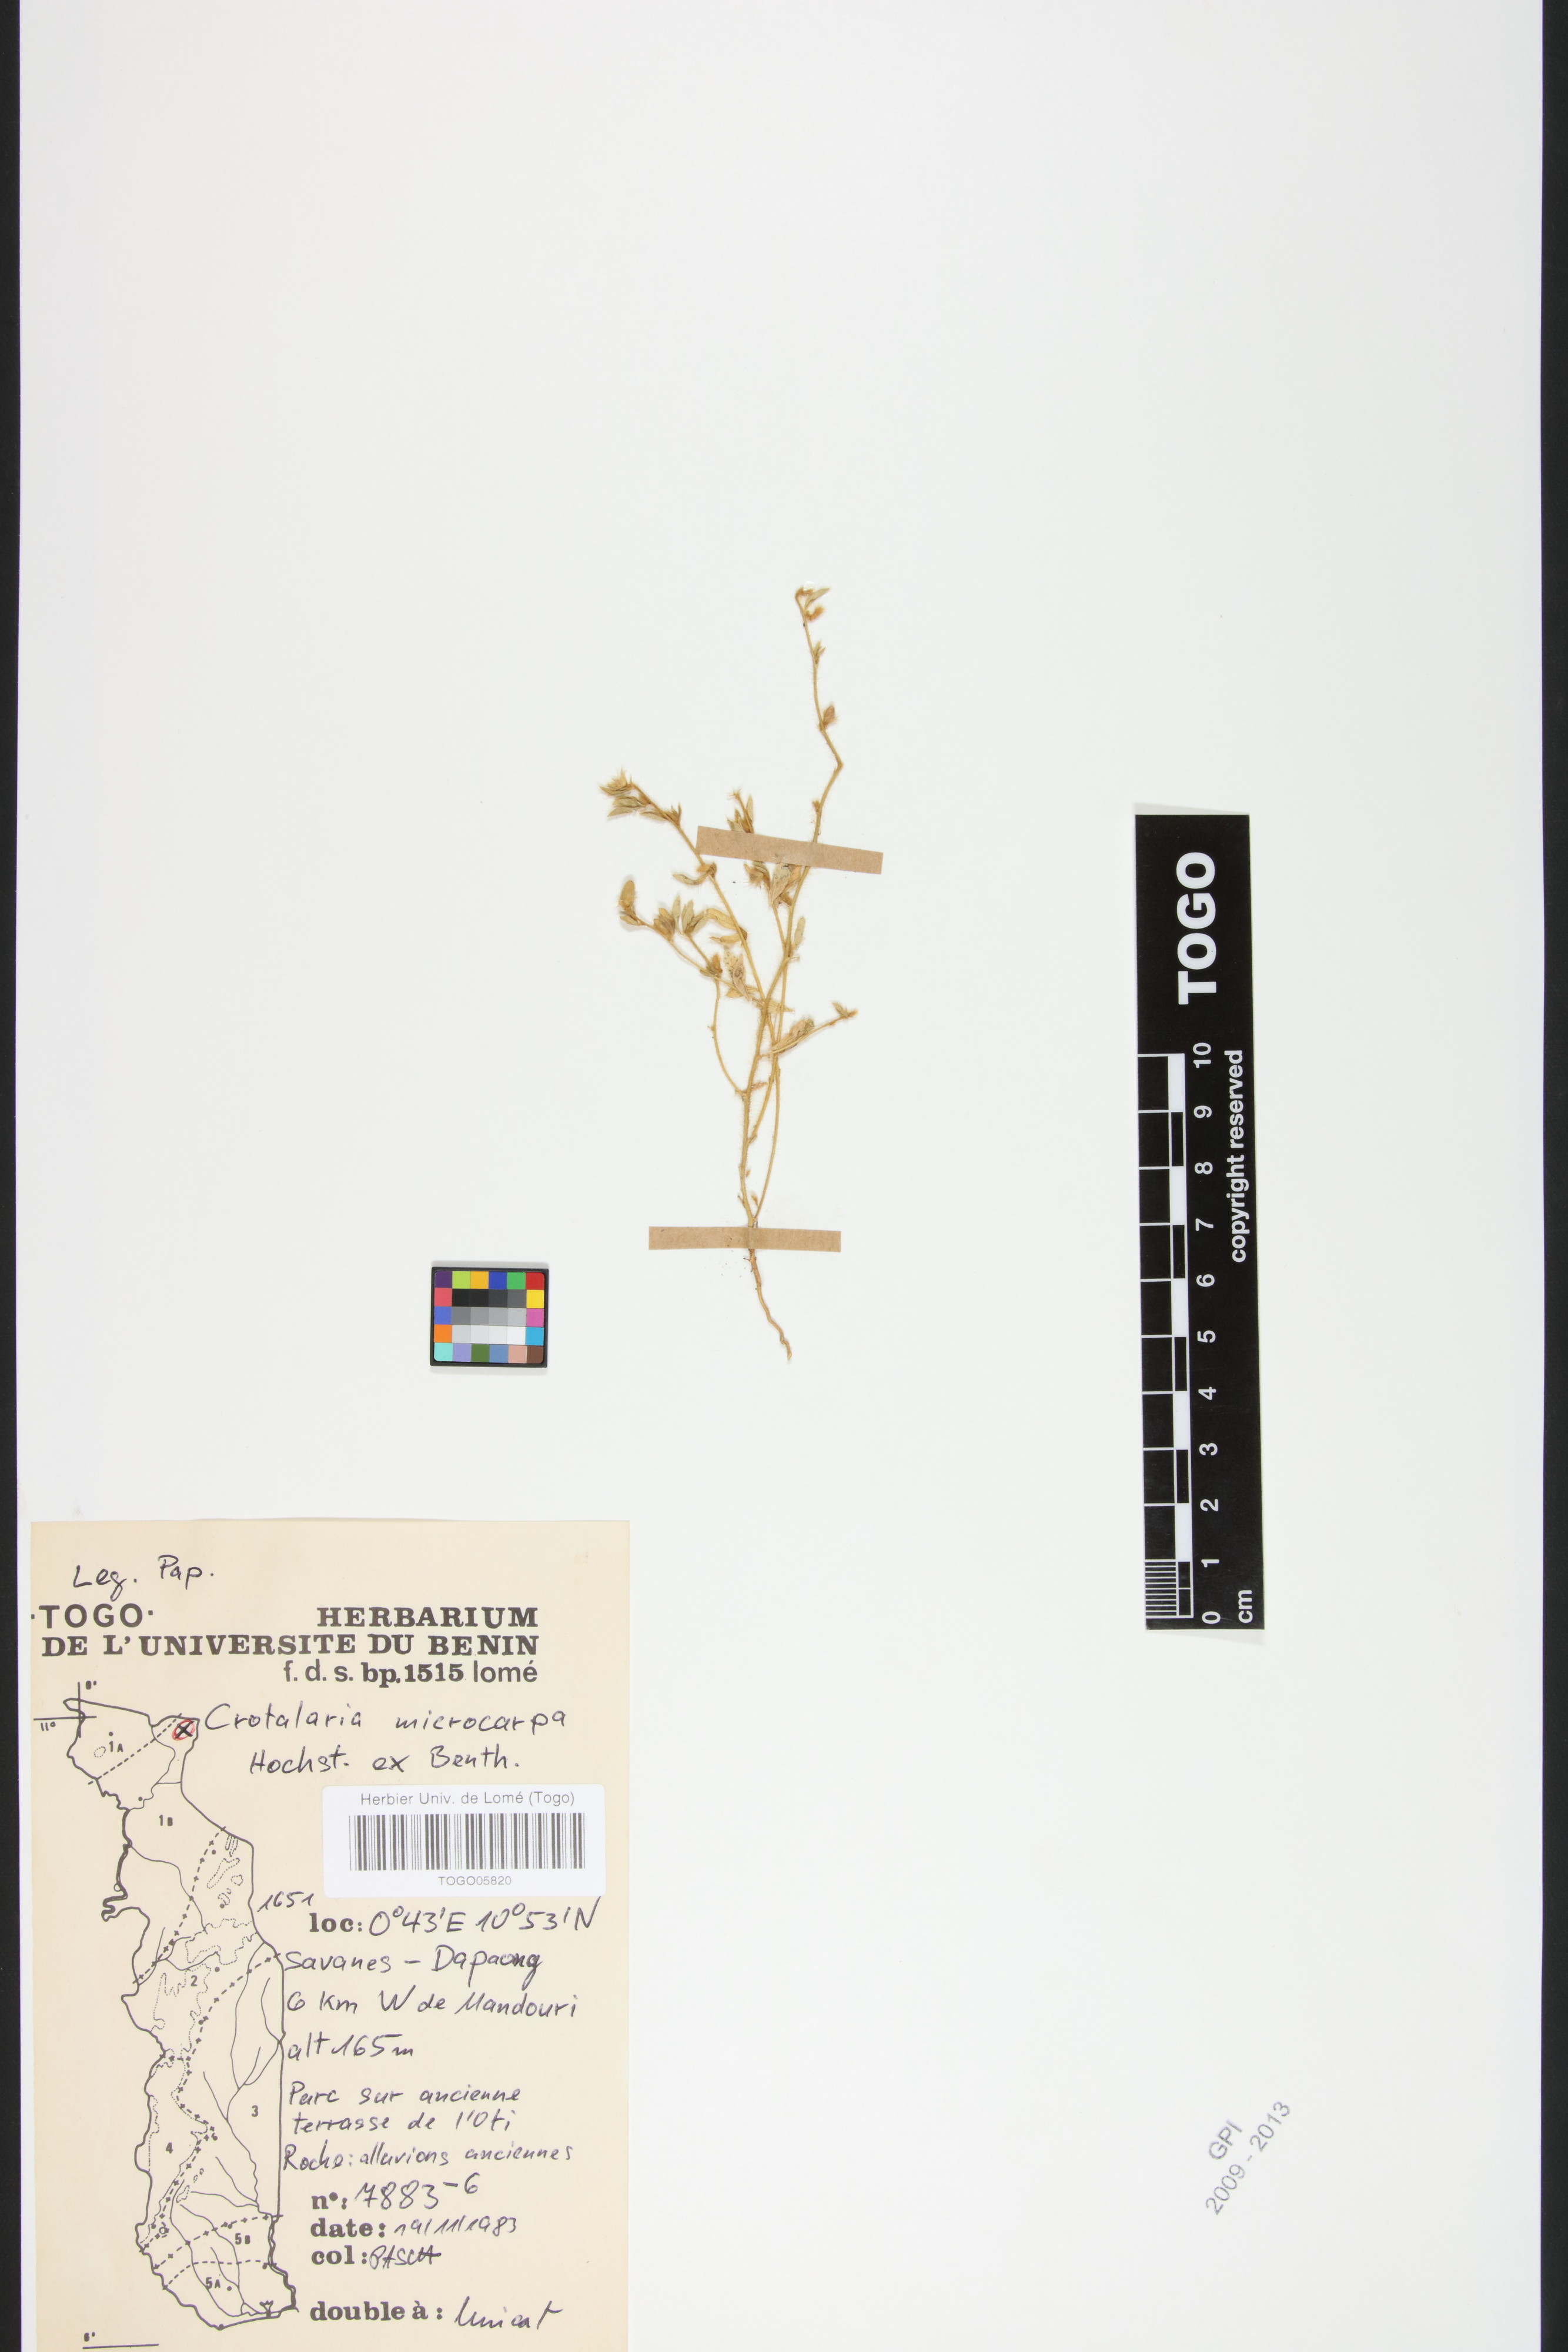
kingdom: Plantae
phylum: Tracheophyta
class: Magnoliopsida
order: Fabales
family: Fabaceae
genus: Crotalaria
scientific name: Crotalaria microcarpa
